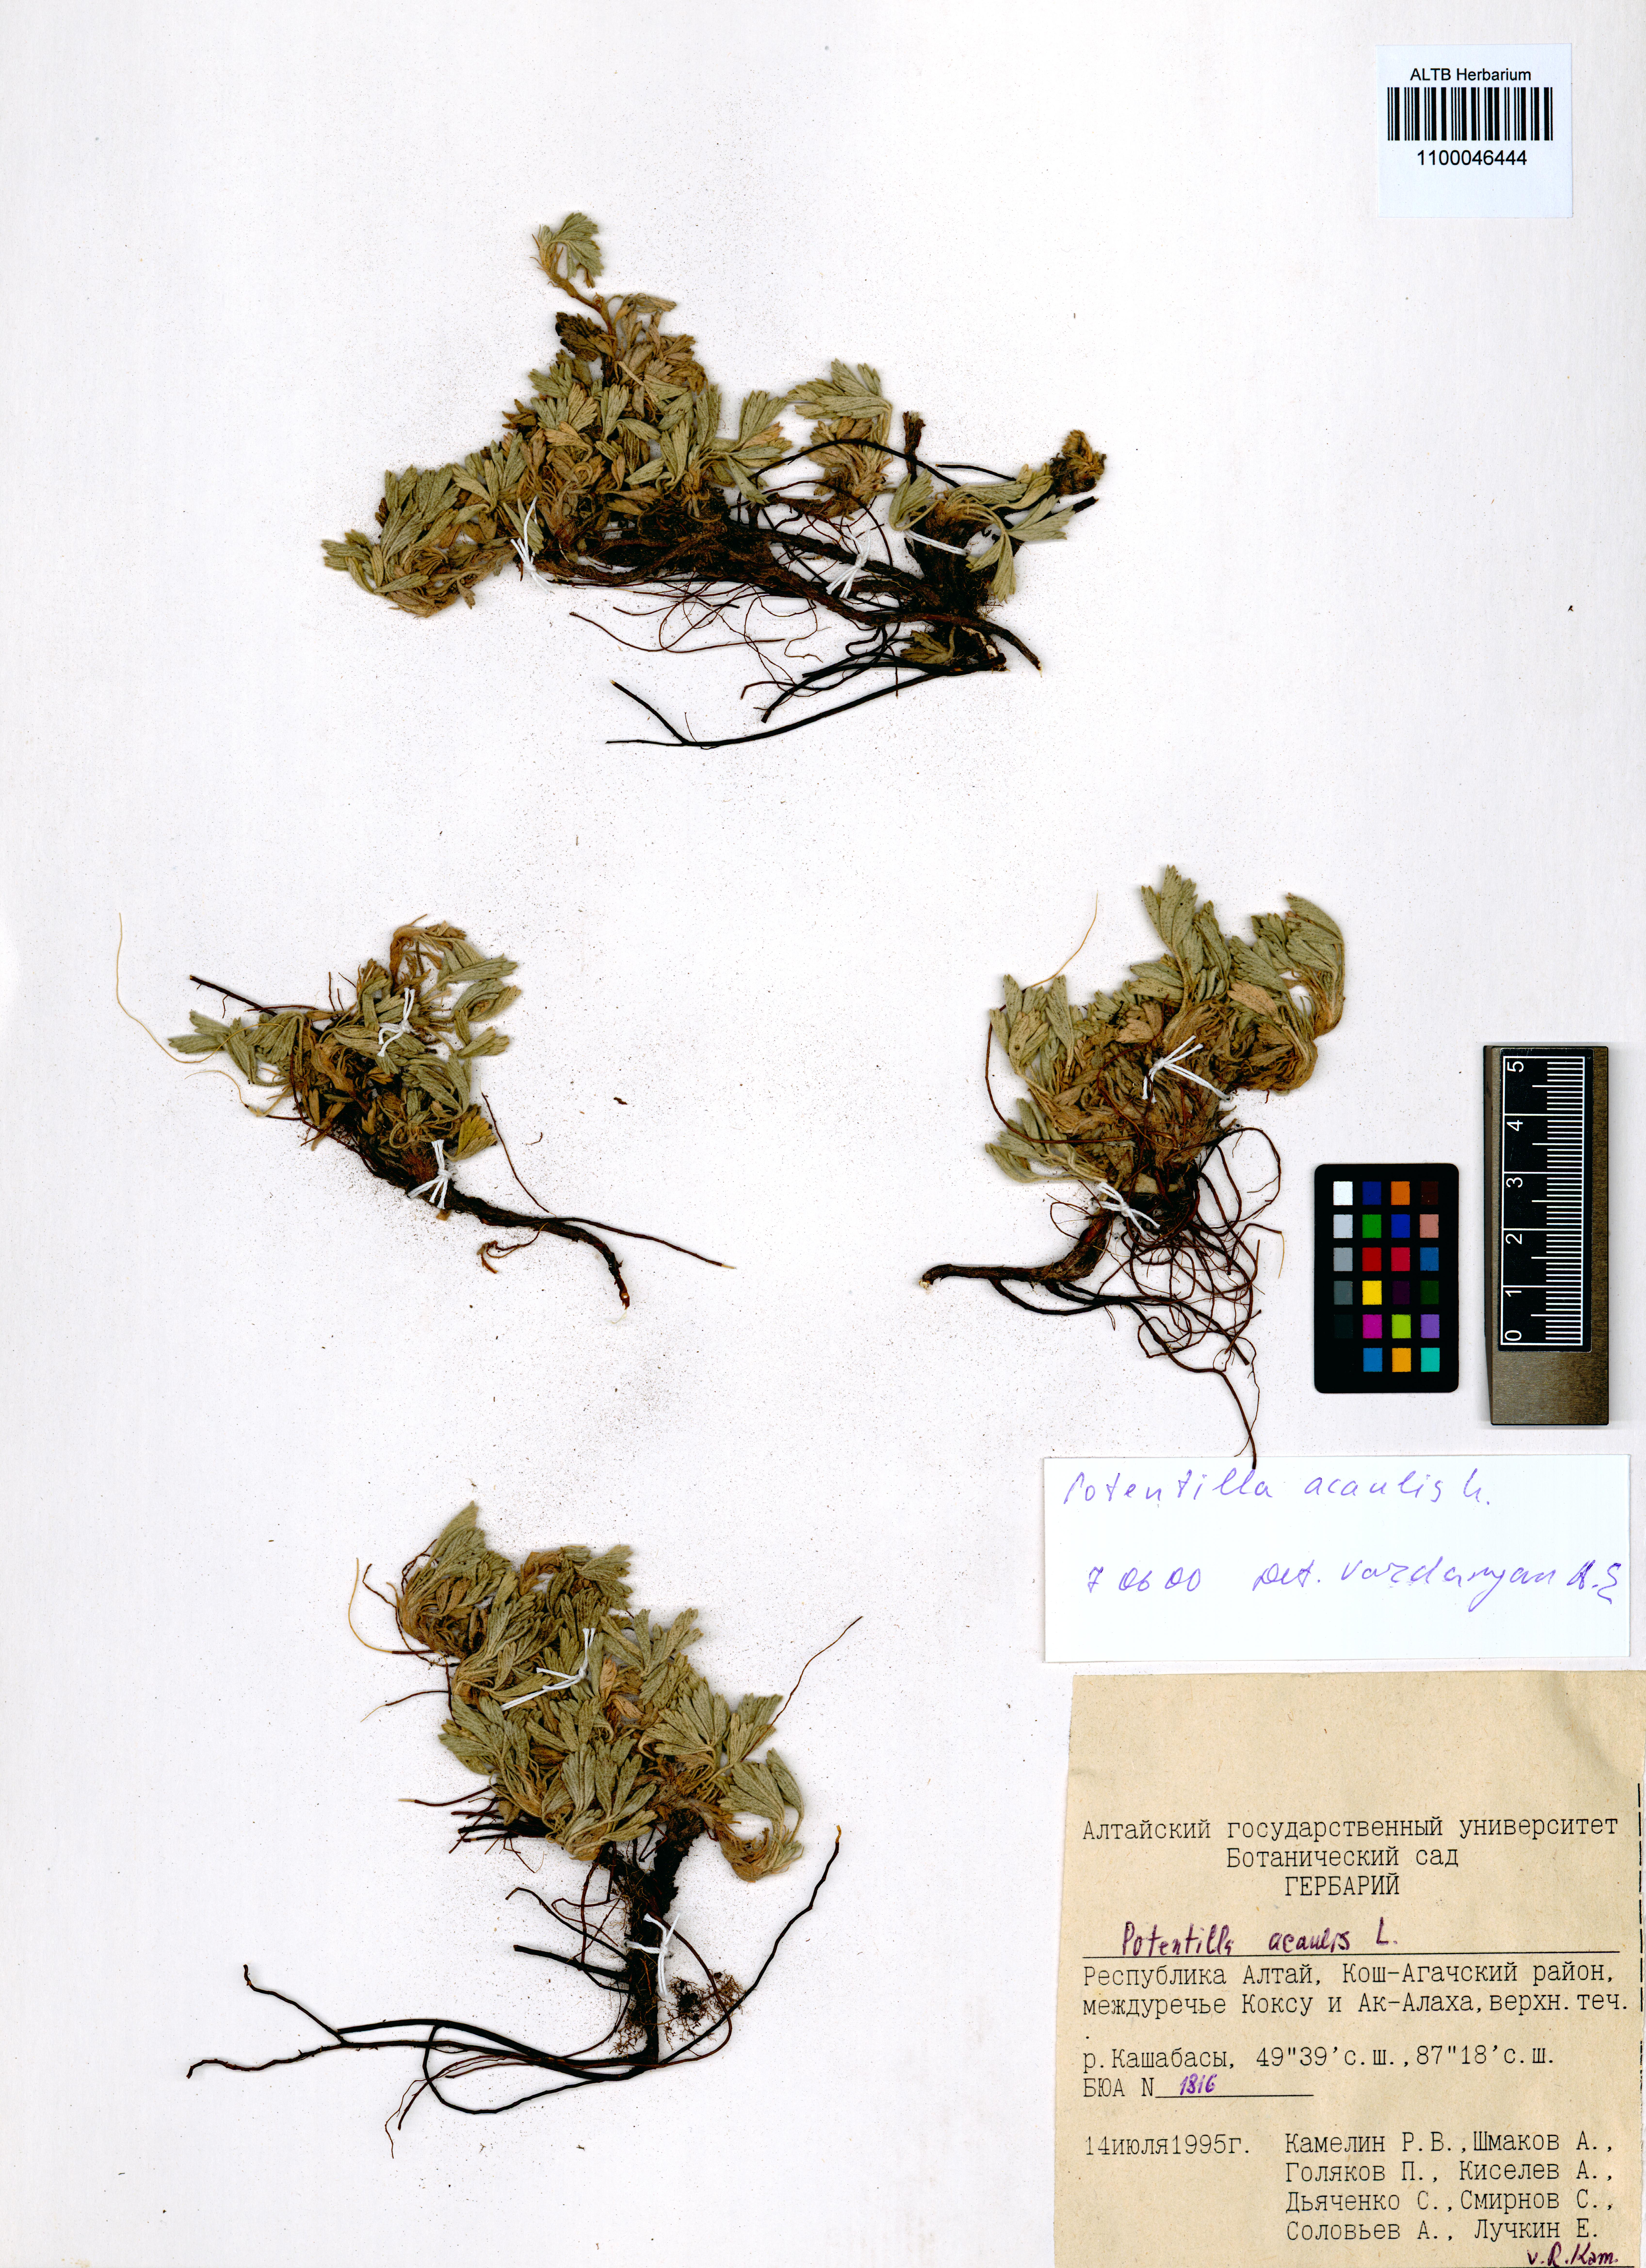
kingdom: Plantae
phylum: Tracheophyta
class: Magnoliopsida
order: Rosales
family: Rosaceae
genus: Potentilla
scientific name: Potentilla acaulis
